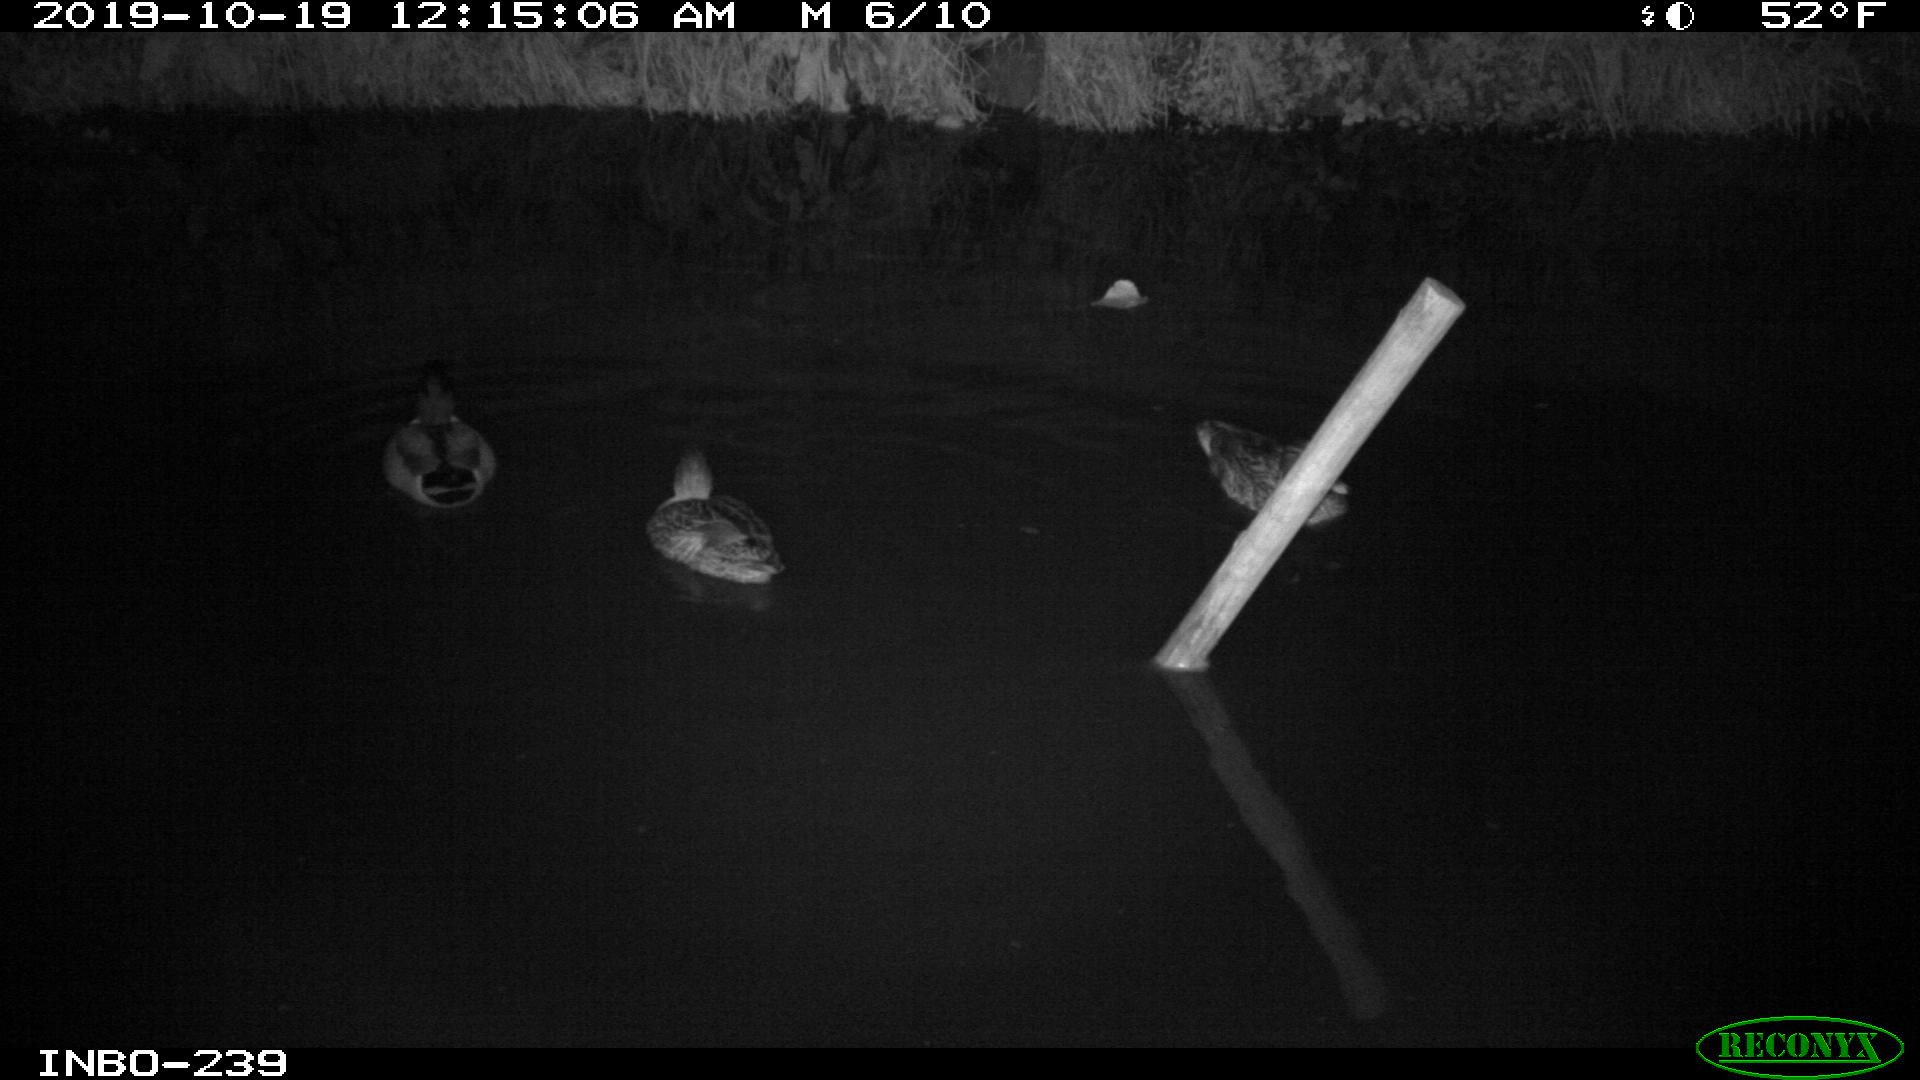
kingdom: Animalia
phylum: Chordata
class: Aves
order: Anseriformes
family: Anatidae
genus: Anas
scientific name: Anas platyrhynchos
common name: Mallard
